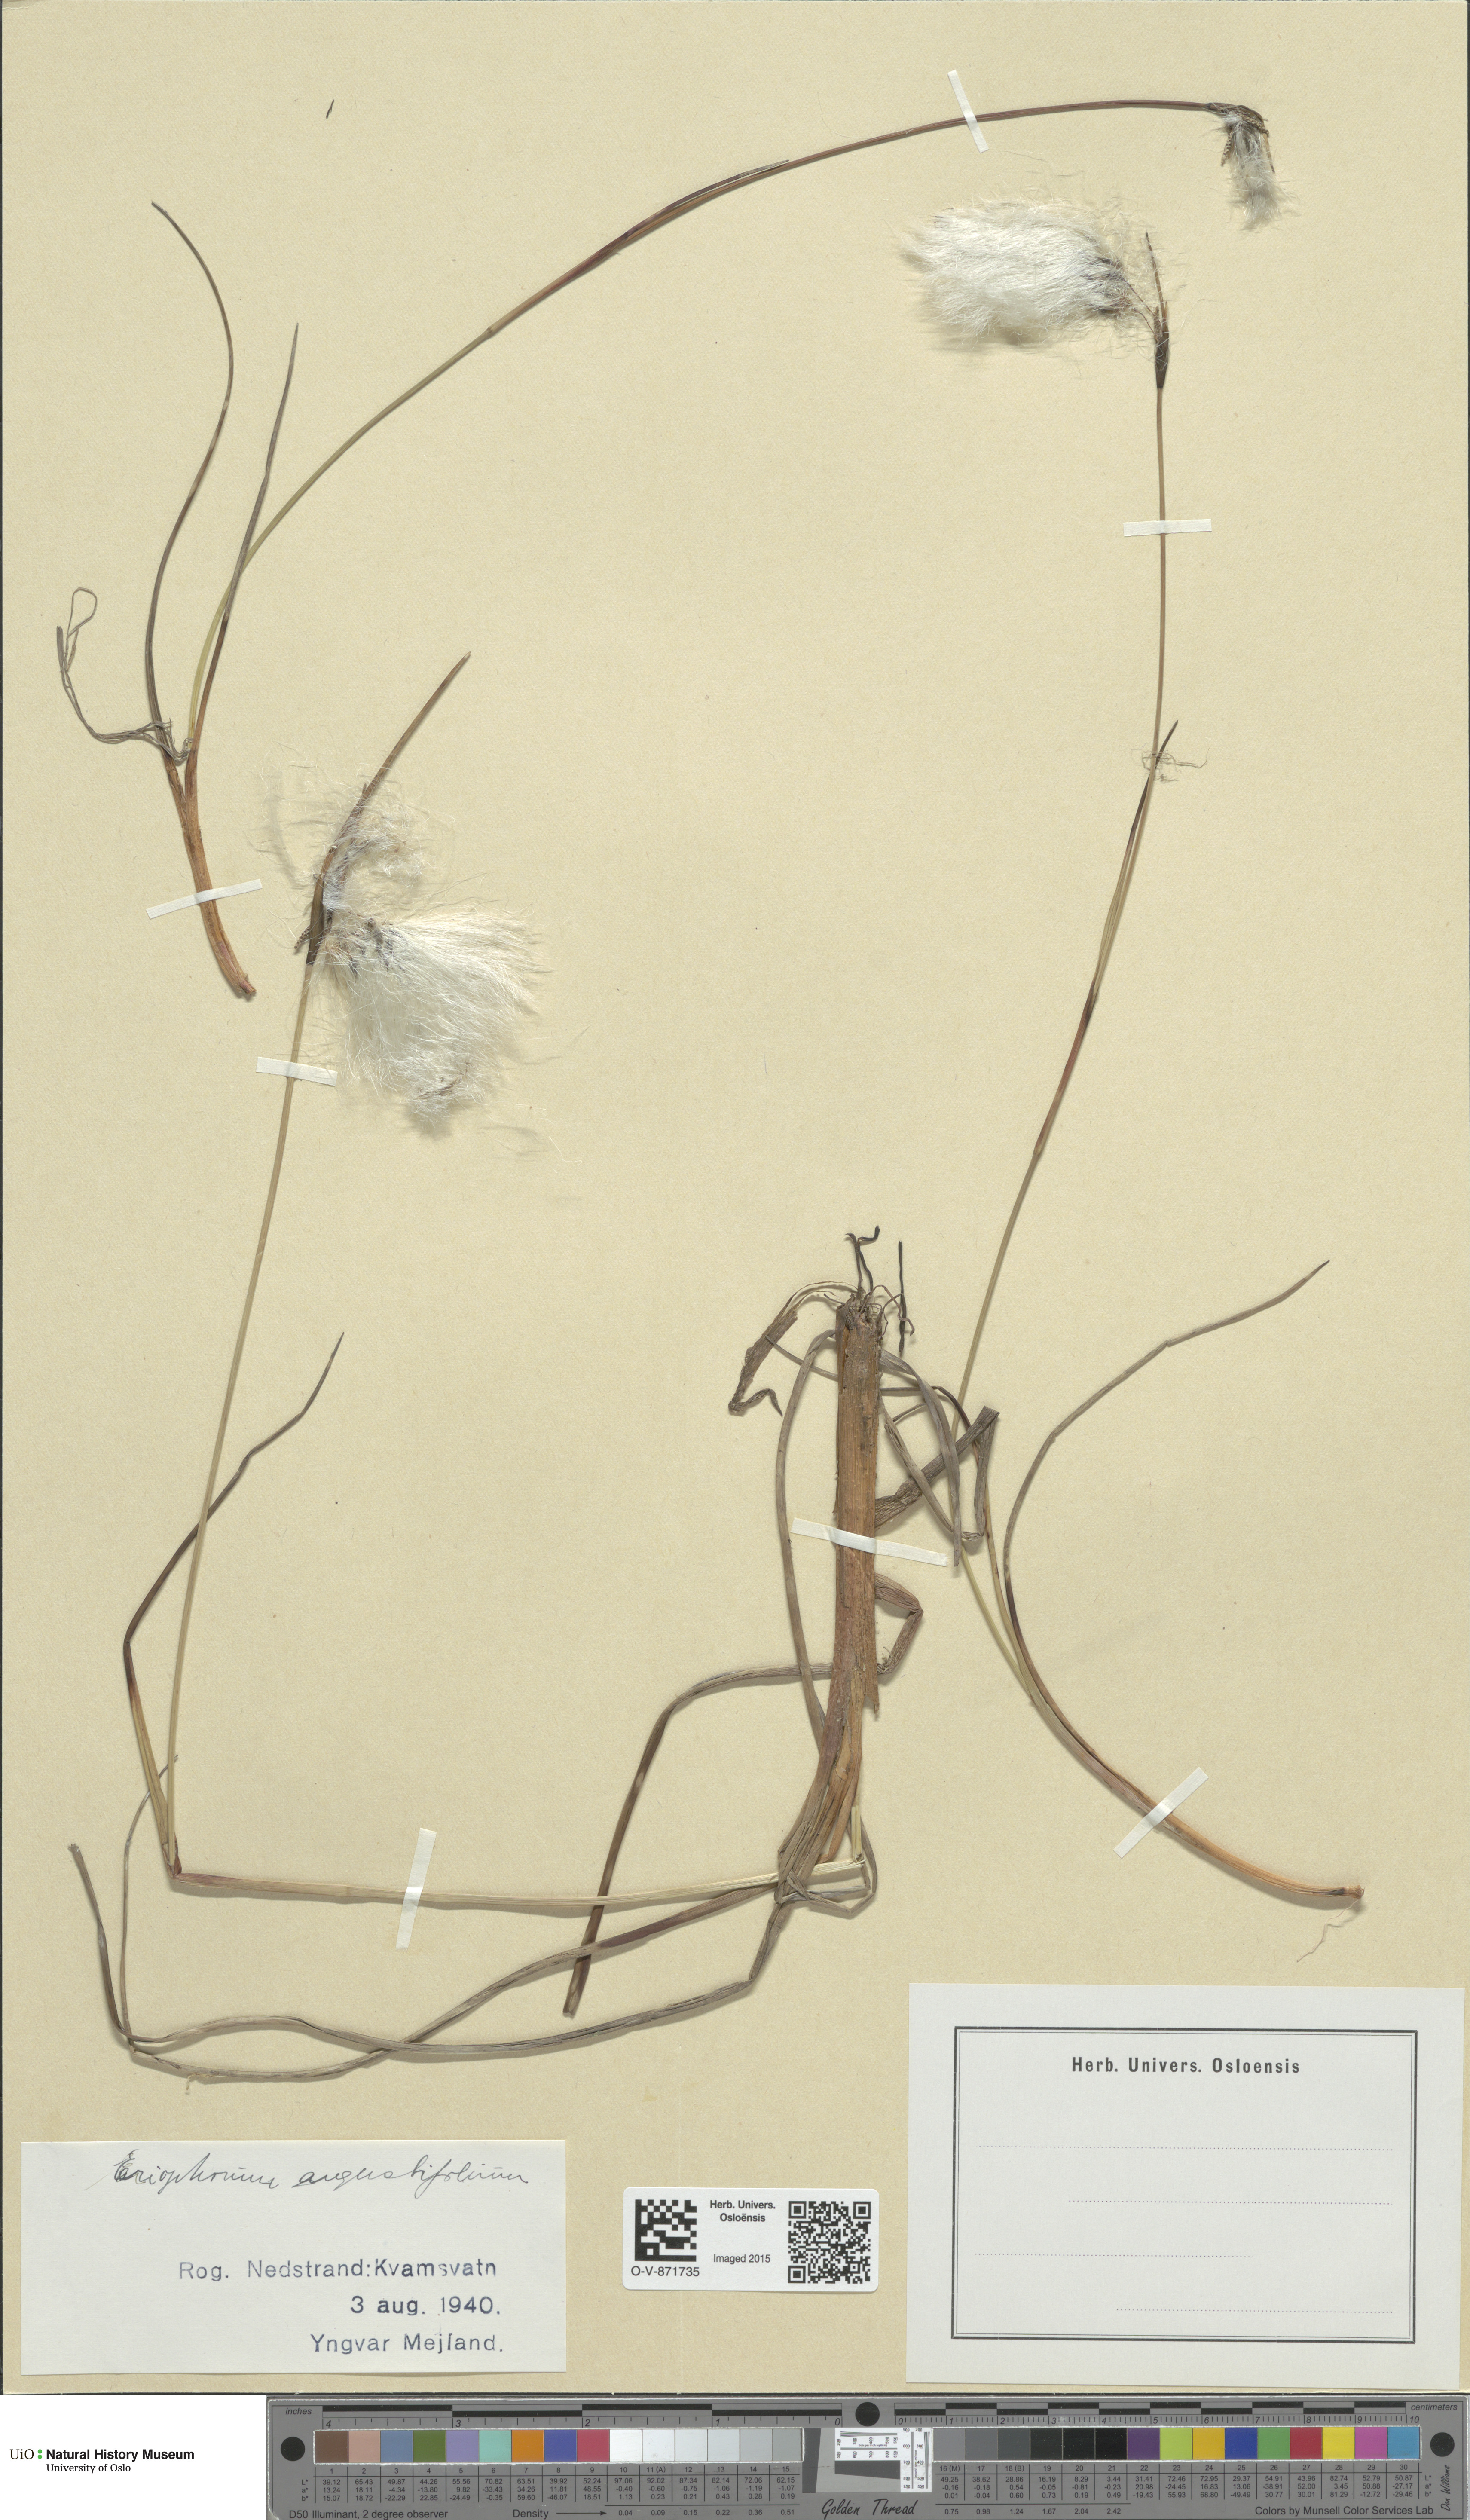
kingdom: Plantae
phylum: Tracheophyta
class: Liliopsida
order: Poales
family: Cyperaceae
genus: Eriophorum
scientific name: Eriophorum angustifolium
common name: Common cottongrass
